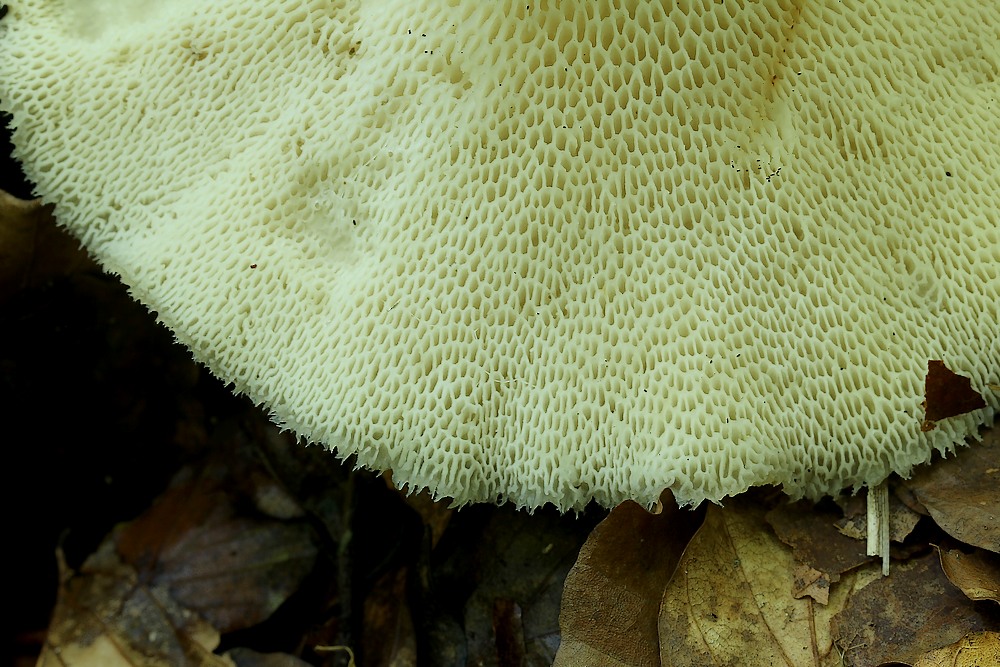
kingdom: Fungi
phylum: Basidiomycota
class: Agaricomycetes
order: Polyporales
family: Polyporaceae
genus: Polyporus
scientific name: Polyporus tuberaster
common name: knoldet stilkporesvamp
